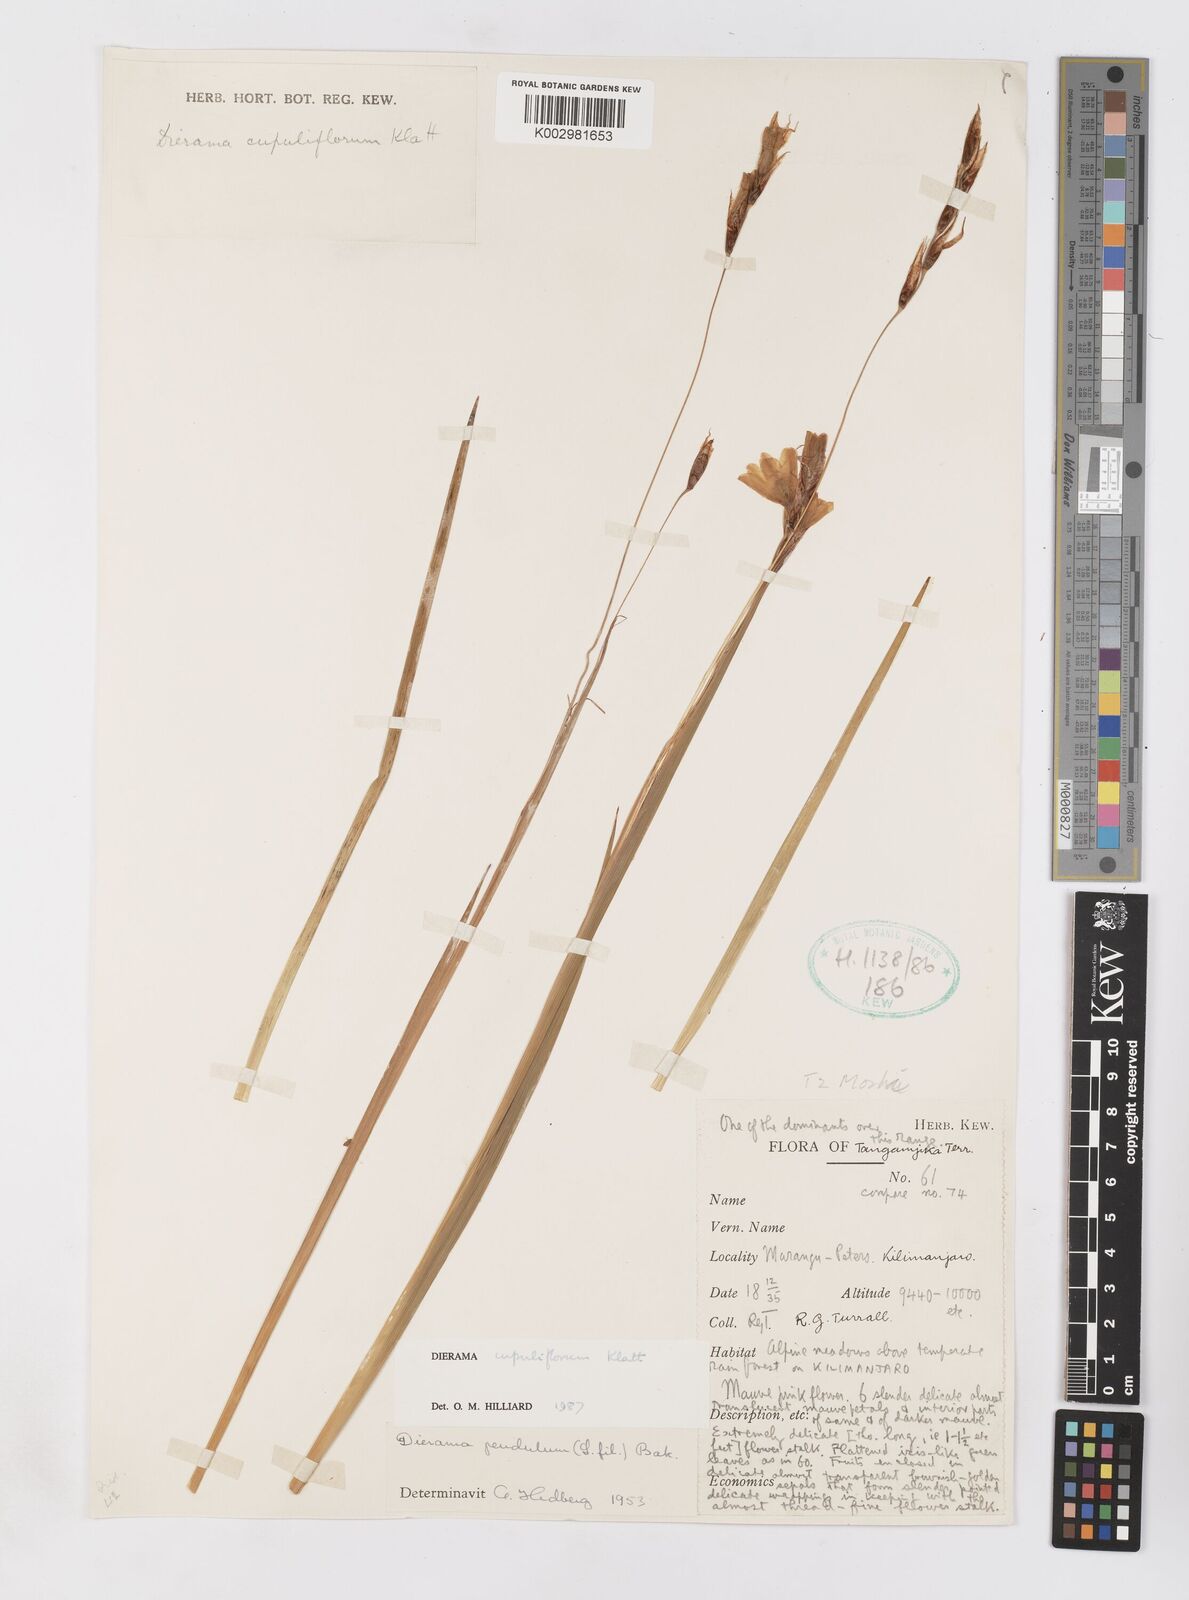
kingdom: Plantae
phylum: Tracheophyta
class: Liliopsida
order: Asparagales
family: Iridaceae
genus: Dierama
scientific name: Dierama cupuliflorum
